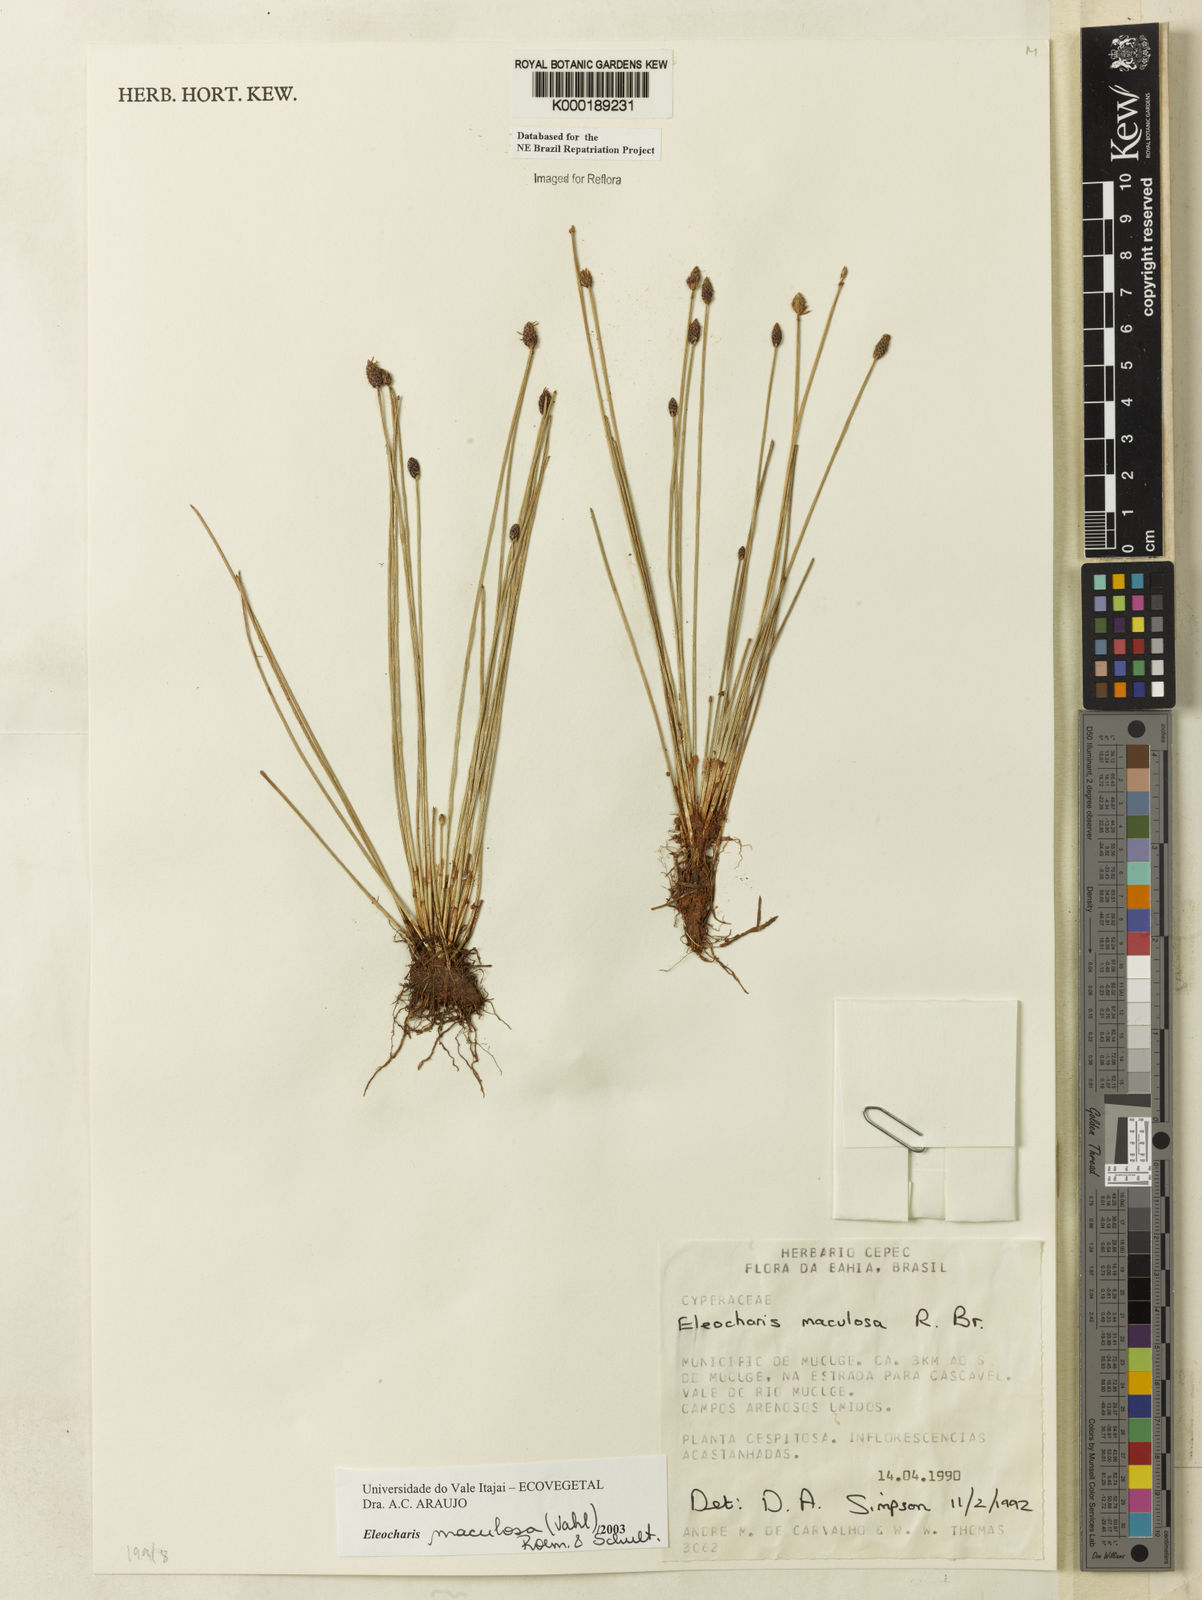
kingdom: Plantae
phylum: Tracheophyta
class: Liliopsida
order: Poales
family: Cyperaceae
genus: Eleocharis
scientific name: Eleocharis maculosa
